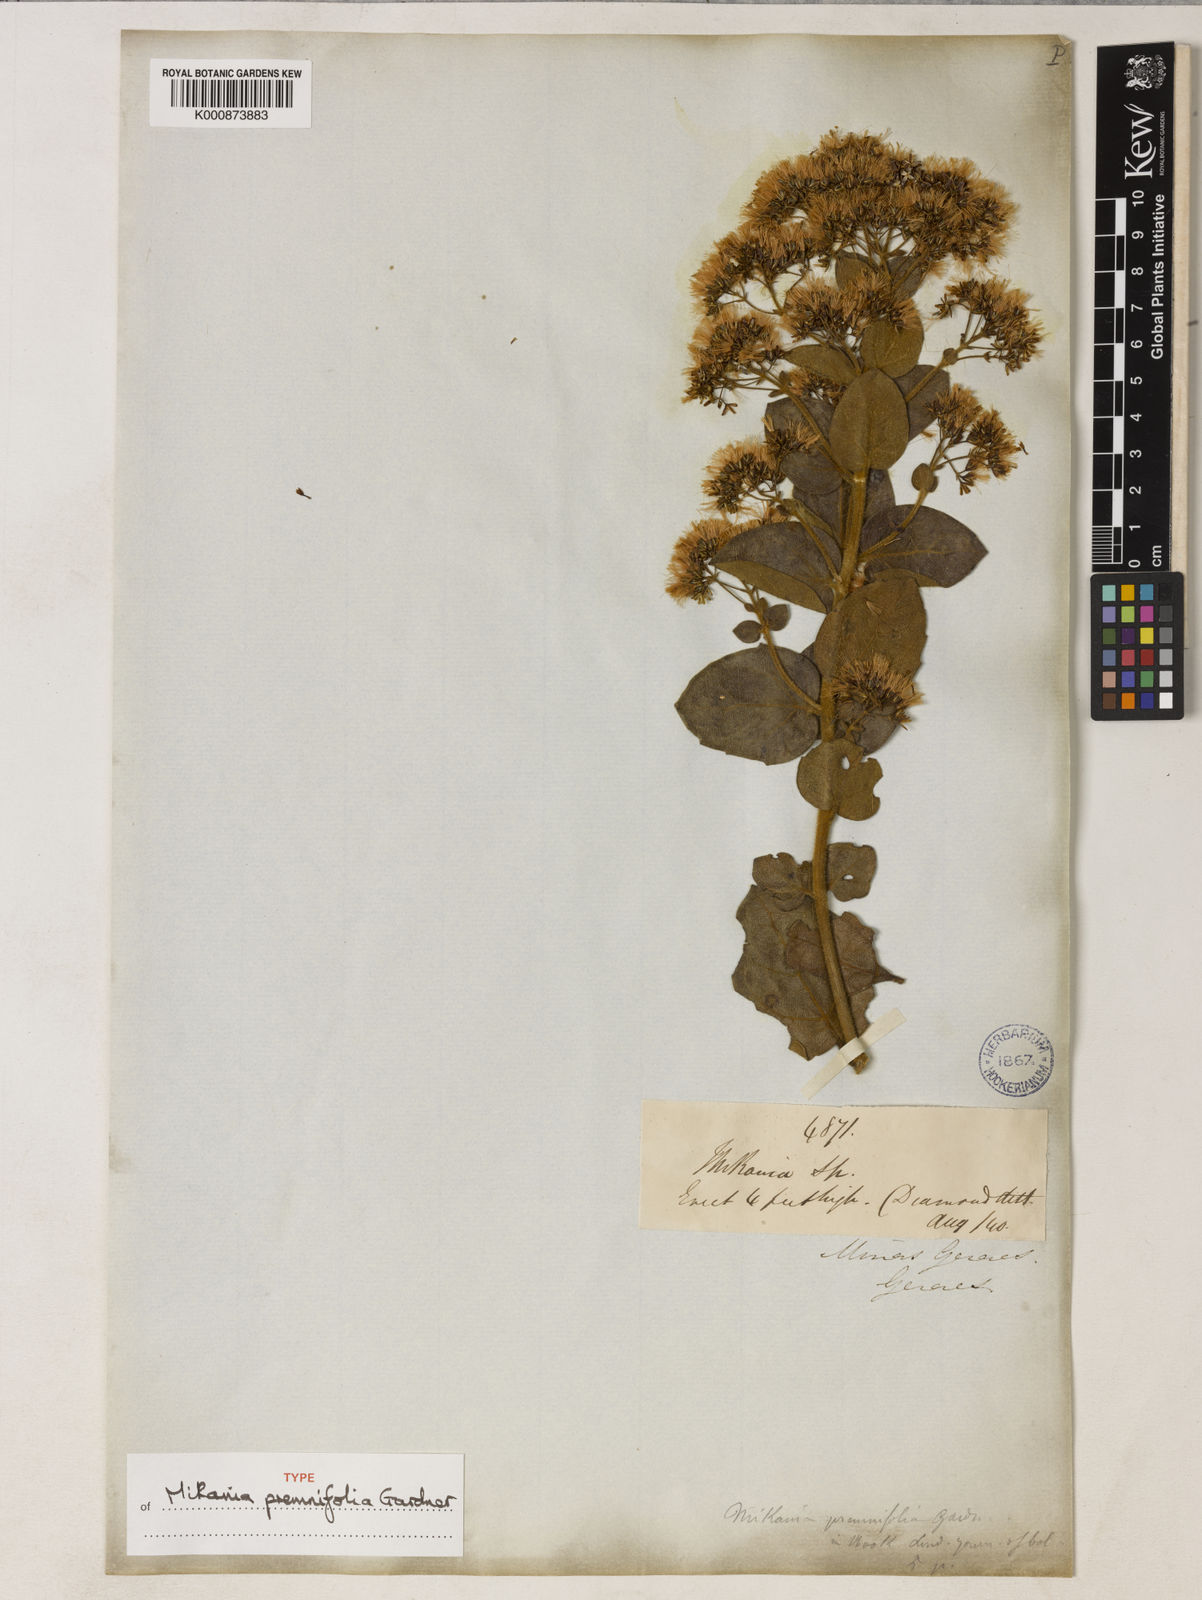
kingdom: Plantae
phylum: Tracheophyta
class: Magnoliopsida
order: Asterales
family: Asteraceae
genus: Mikania
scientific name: Mikania premnifolia
